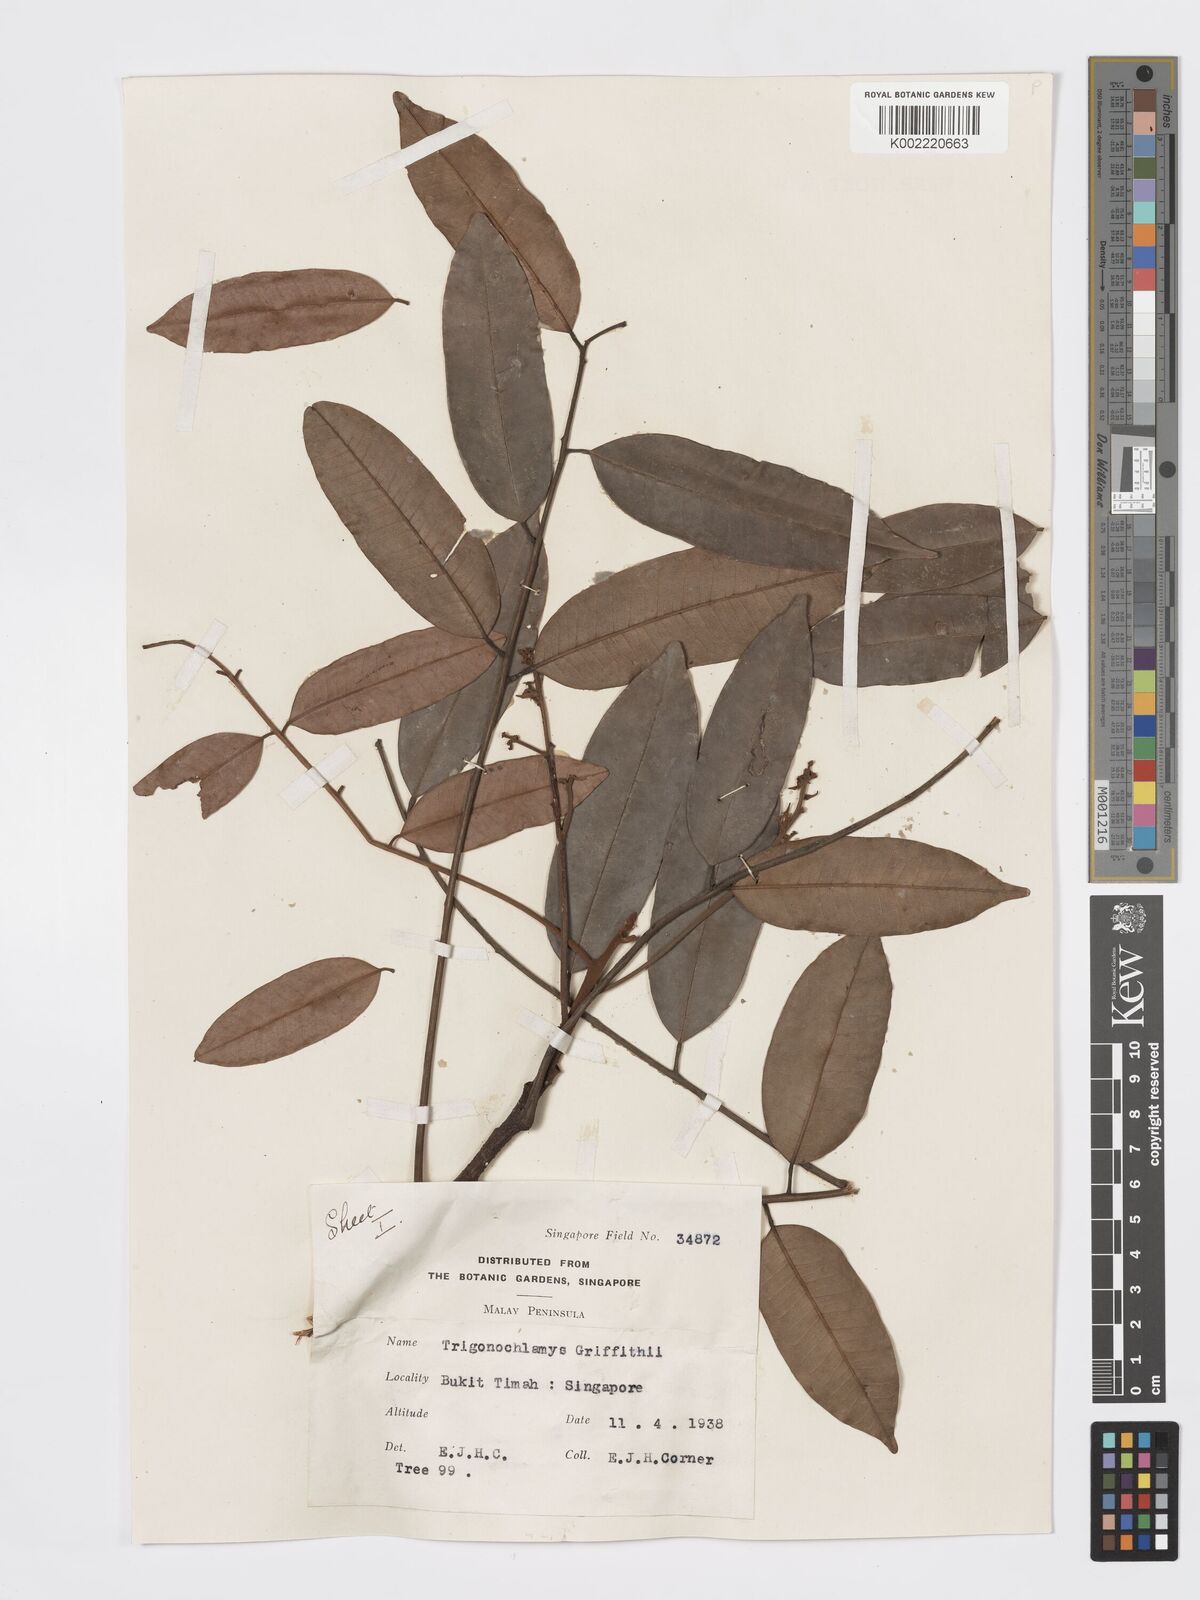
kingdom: Plantae
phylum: Tracheophyta
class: Magnoliopsida
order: Sapindales
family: Burseraceae
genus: Santiria
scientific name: Santiria griffithii
